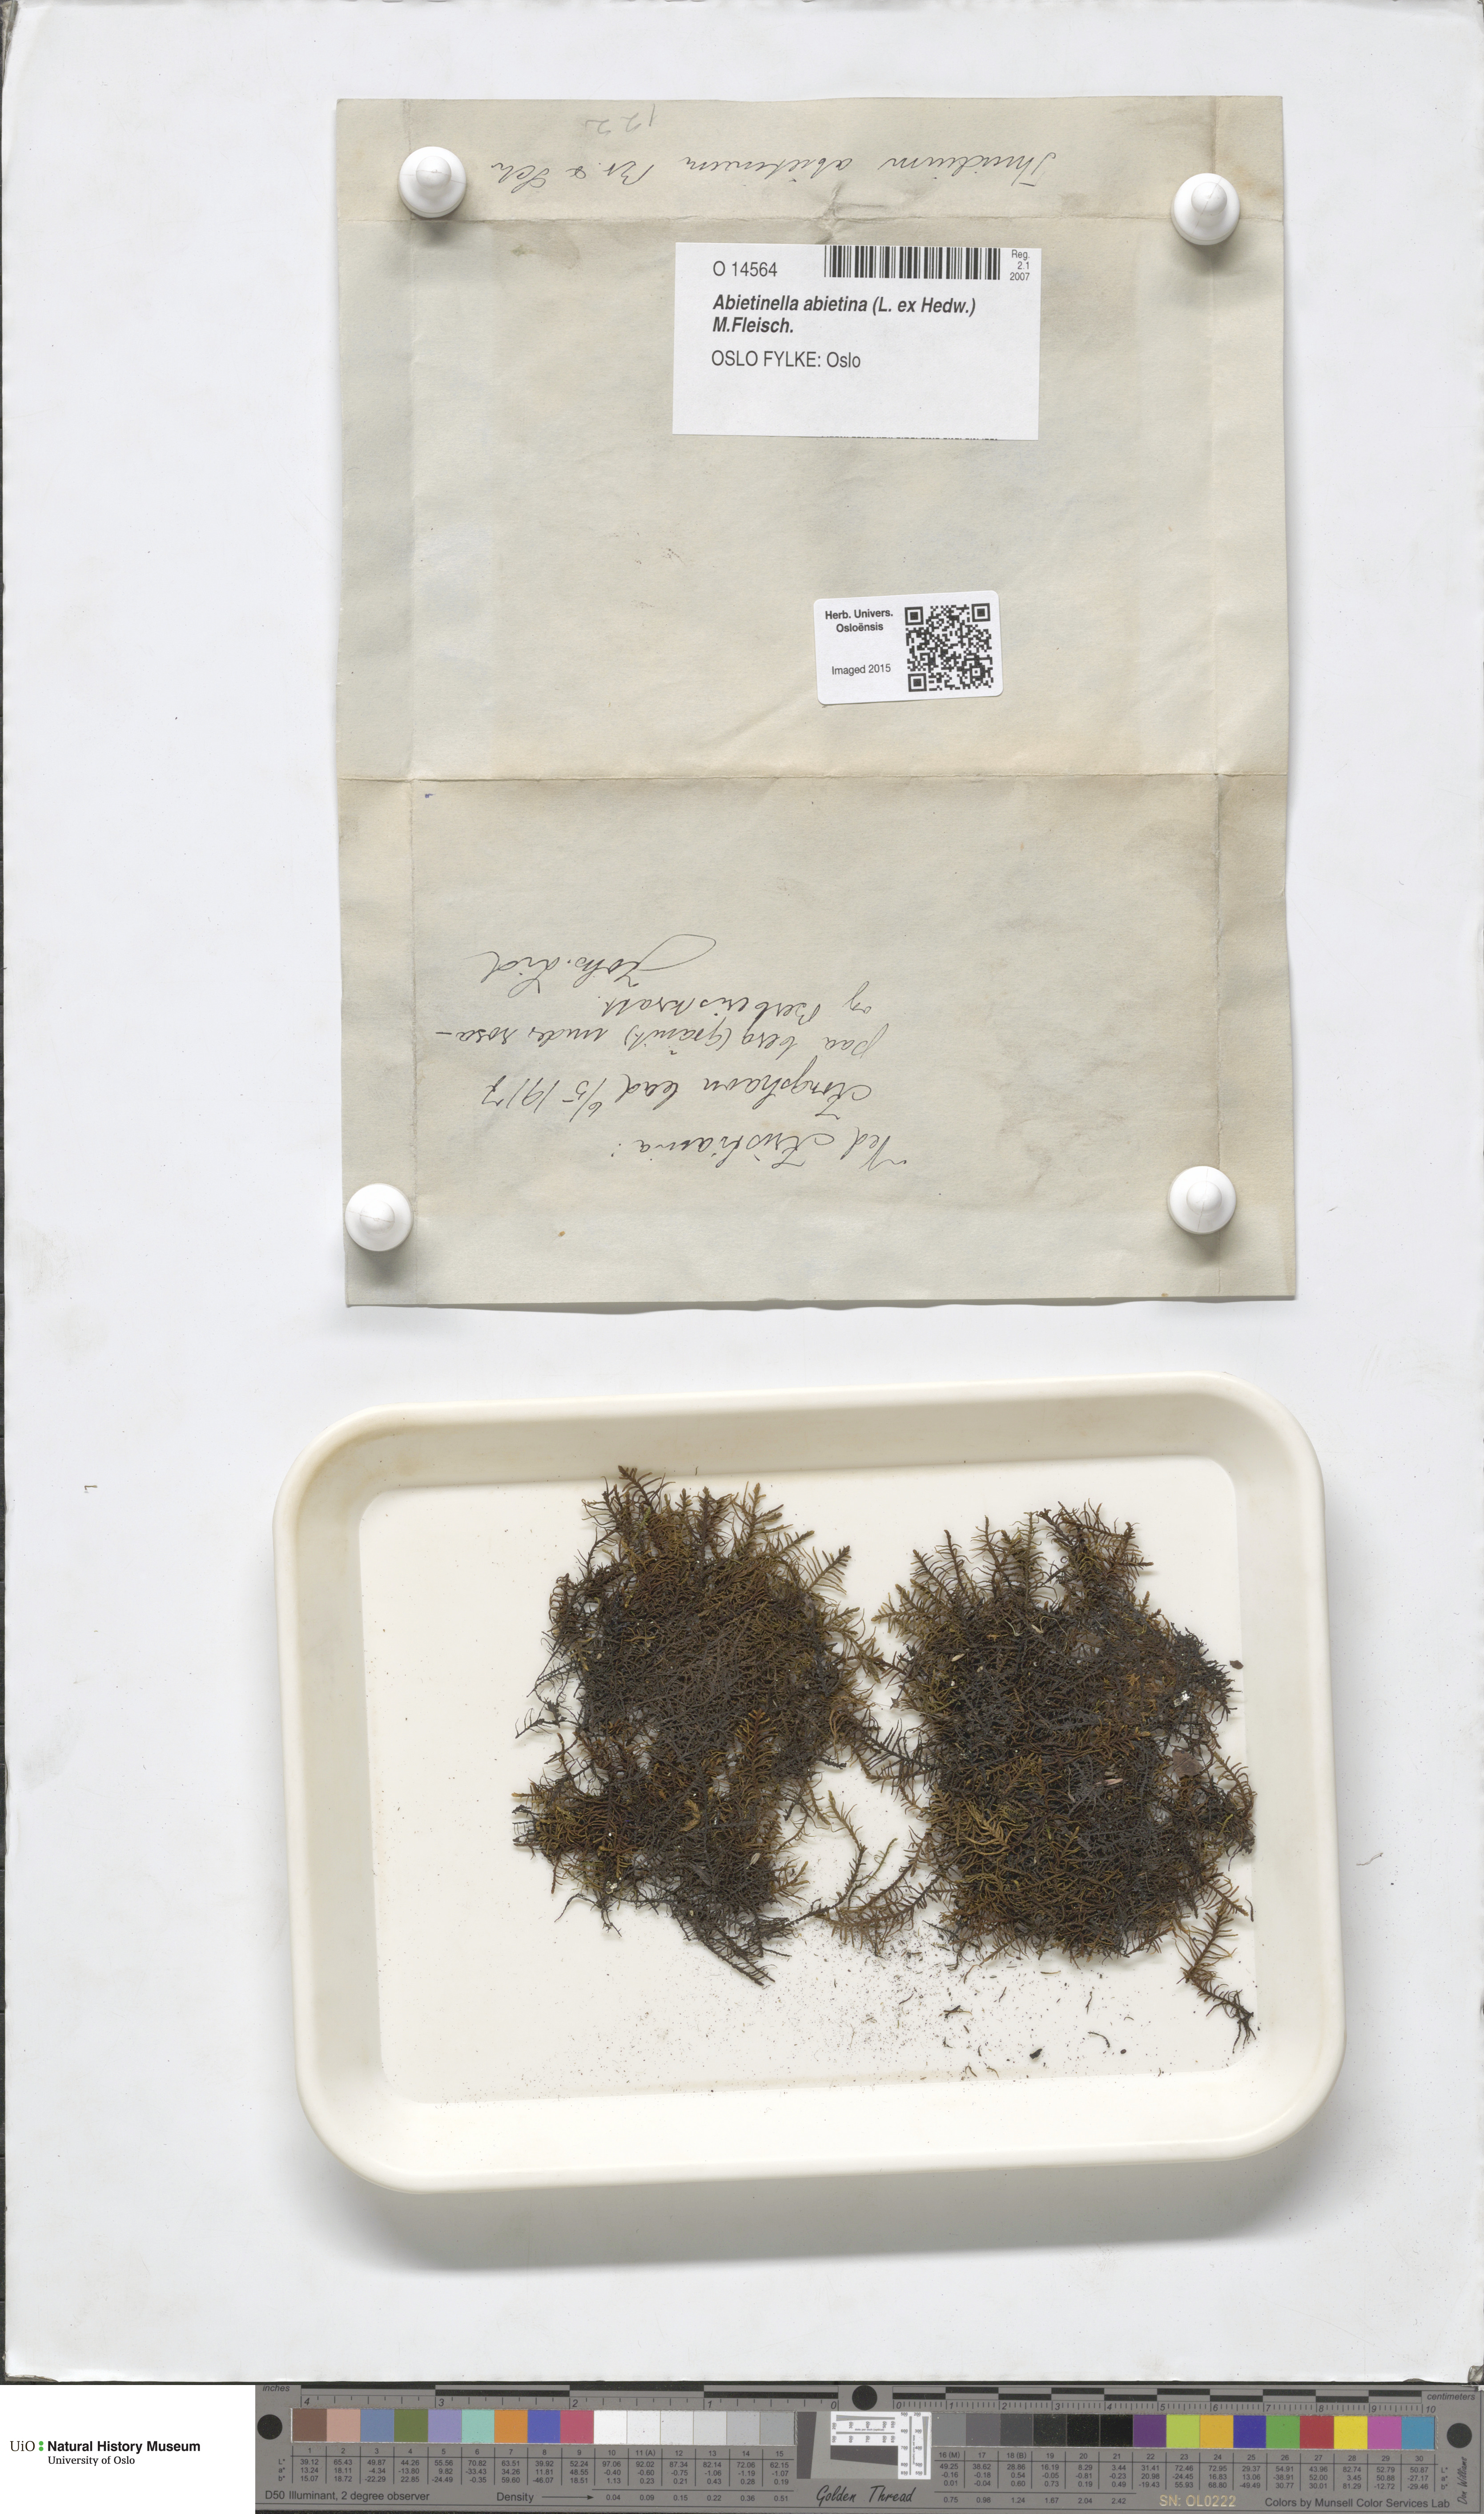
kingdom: Plantae
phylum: Bryophyta
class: Bryopsida
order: Hypnales
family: Thuidiaceae
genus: Abietinella
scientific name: Abietinella abietina
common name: Wiry fern moss
